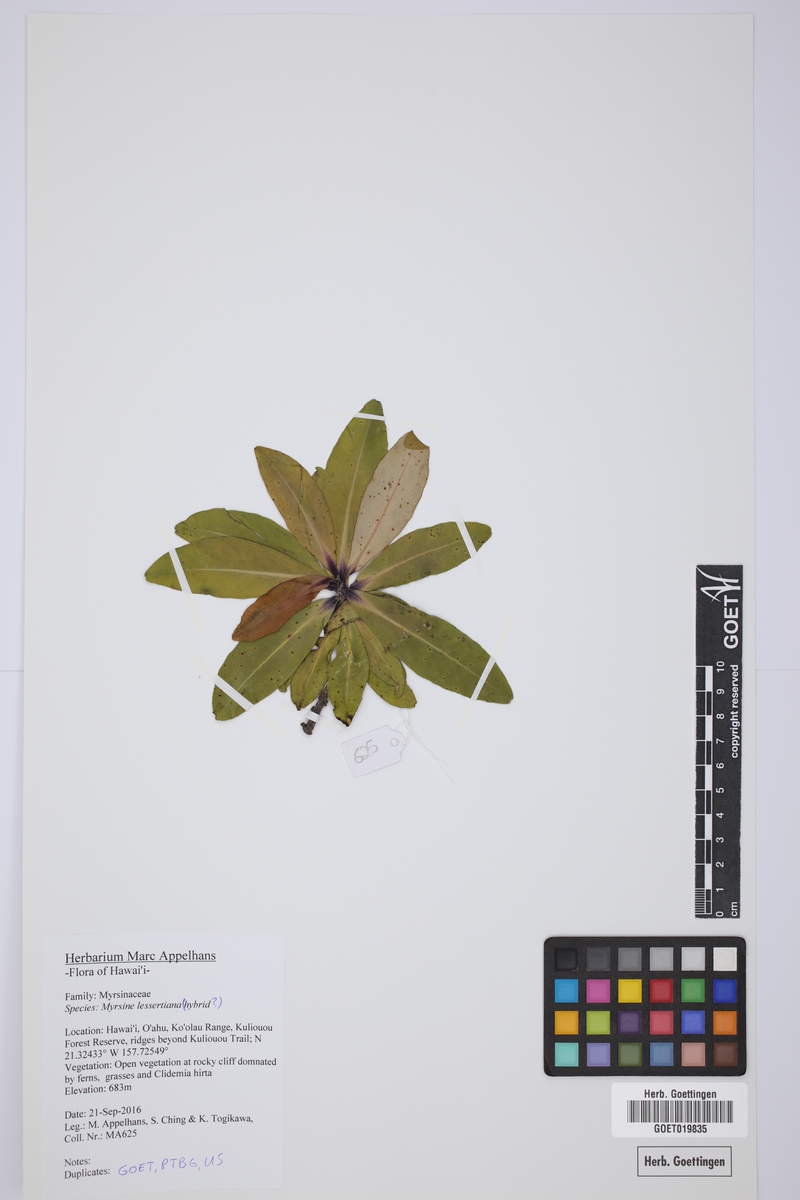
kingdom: Plantae
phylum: Tracheophyta
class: Magnoliopsida
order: Ericales
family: Primulaceae
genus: Myrsine
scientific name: Myrsine lessertiana
